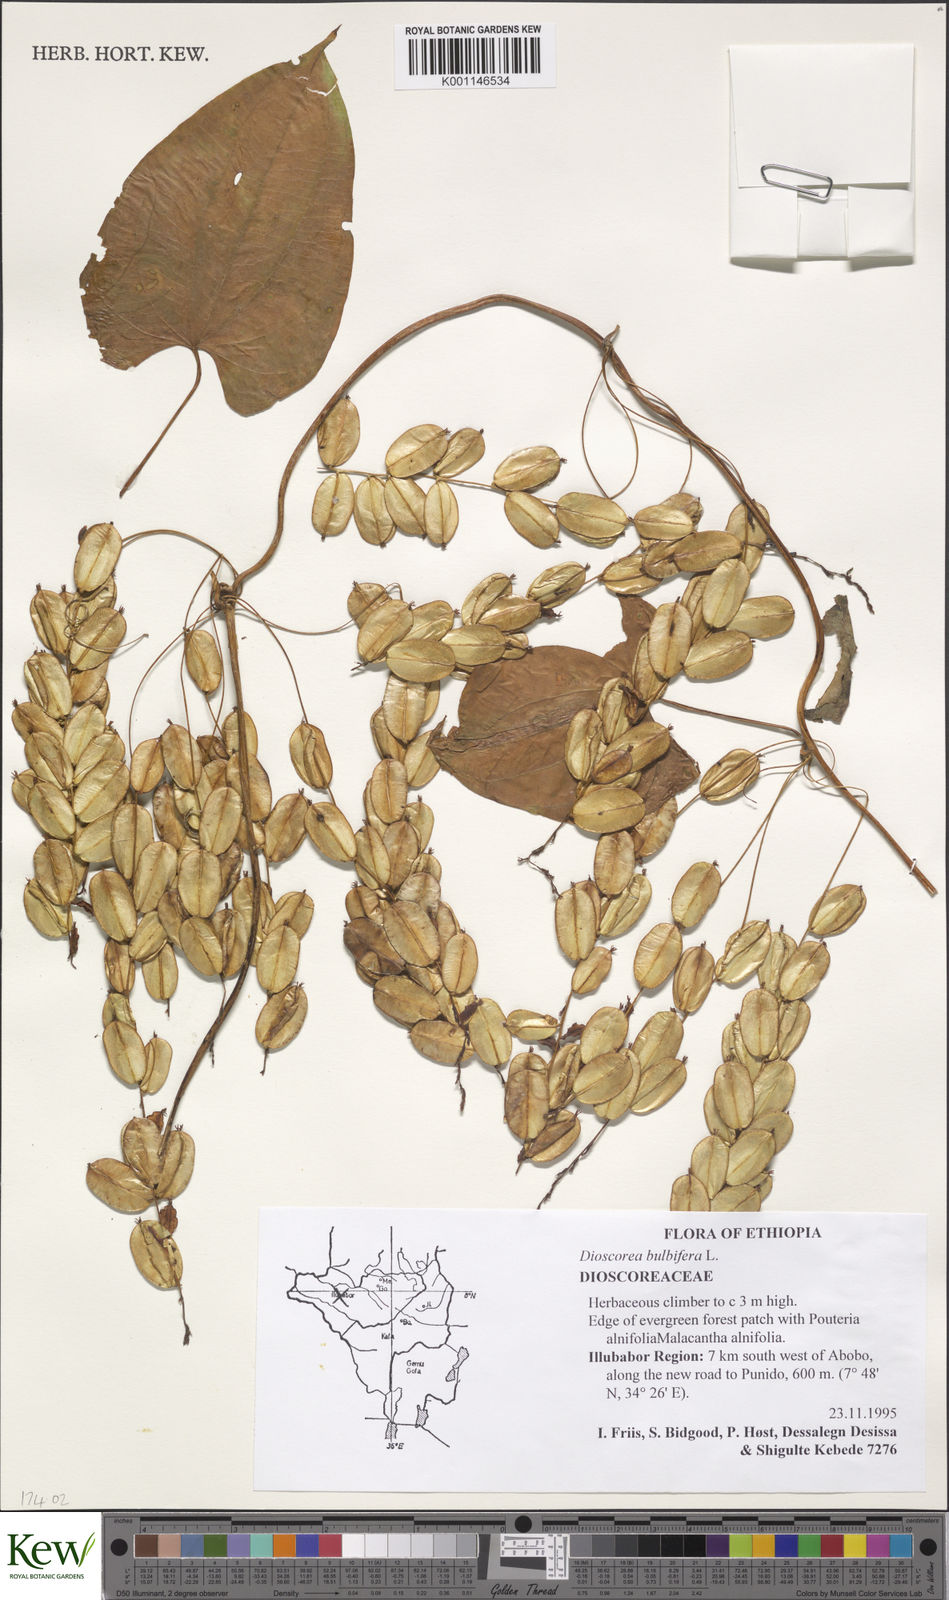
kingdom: Plantae
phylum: Tracheophyta
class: Liliopsida
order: Dioscoreales
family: Dioscoreaceae
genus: Dioscorea
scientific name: Dioscorea bulbifera
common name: Air yam
